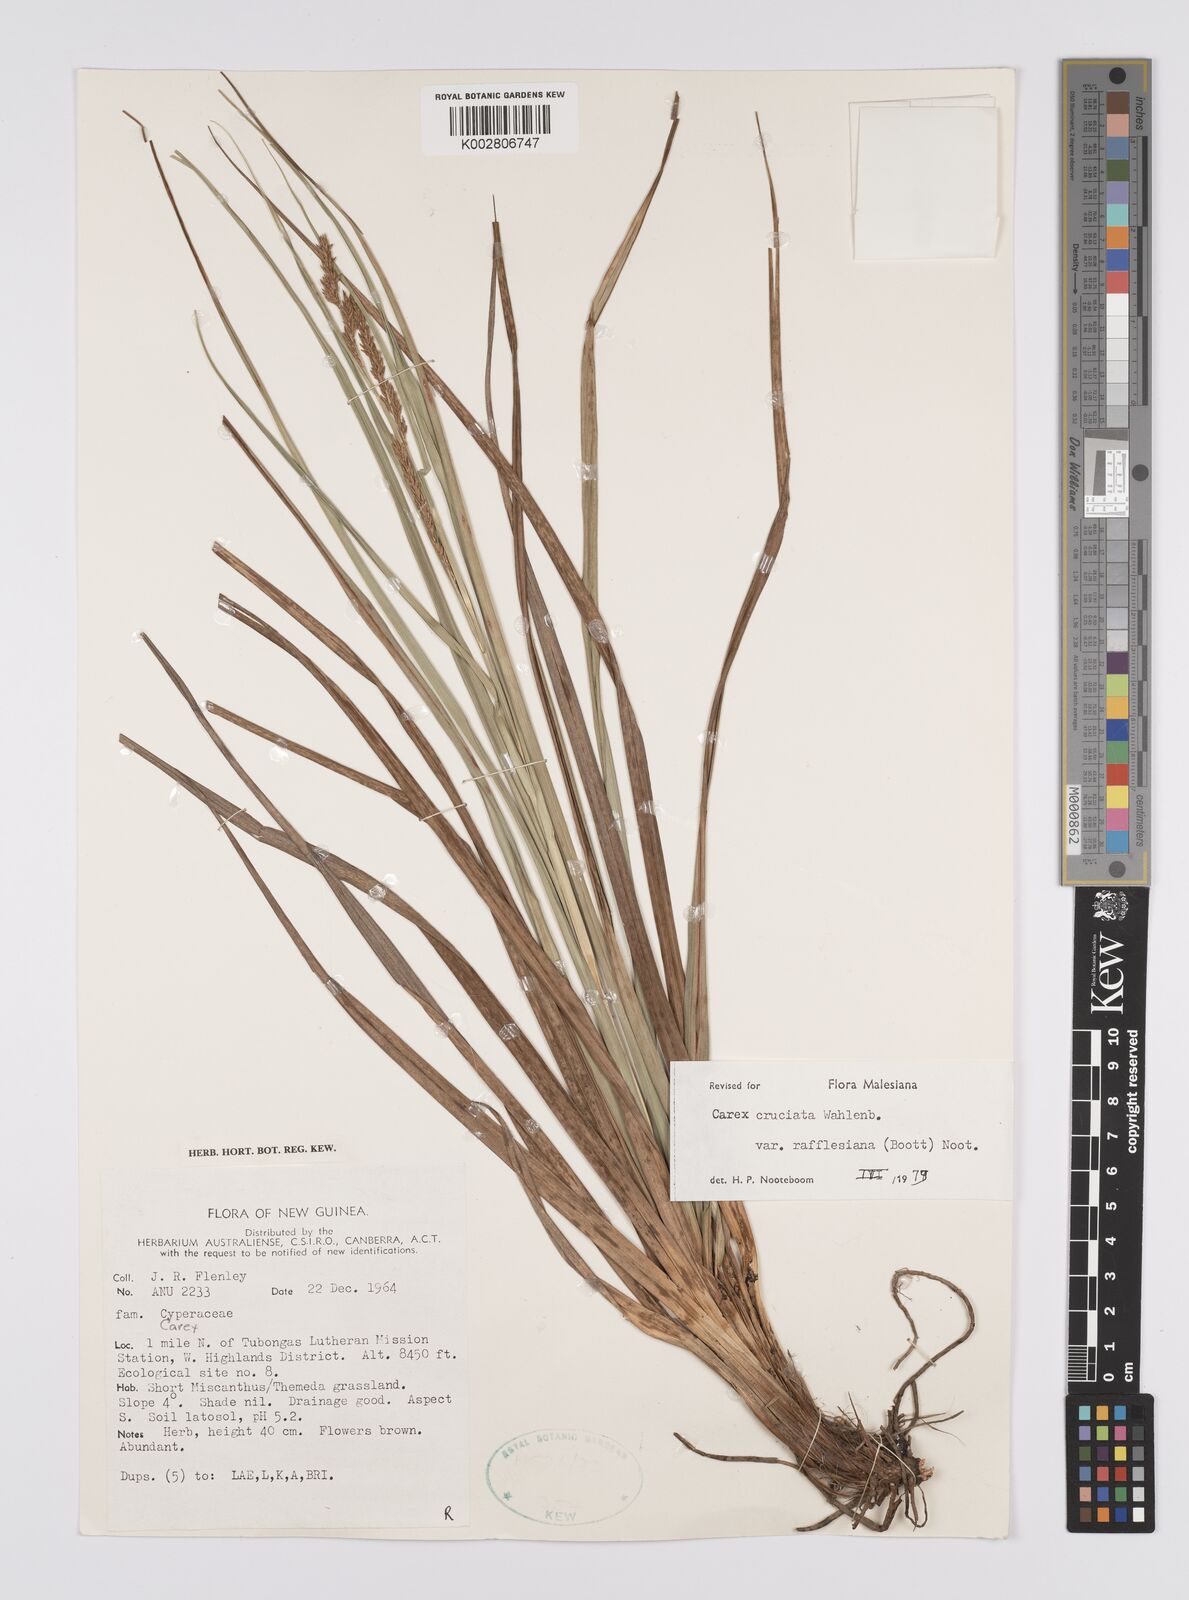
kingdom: Plantae
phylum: Tracheophyta
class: Liliopsida
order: Poales
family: Cyperaceae
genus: Carex
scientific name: Carex rafflesiana
